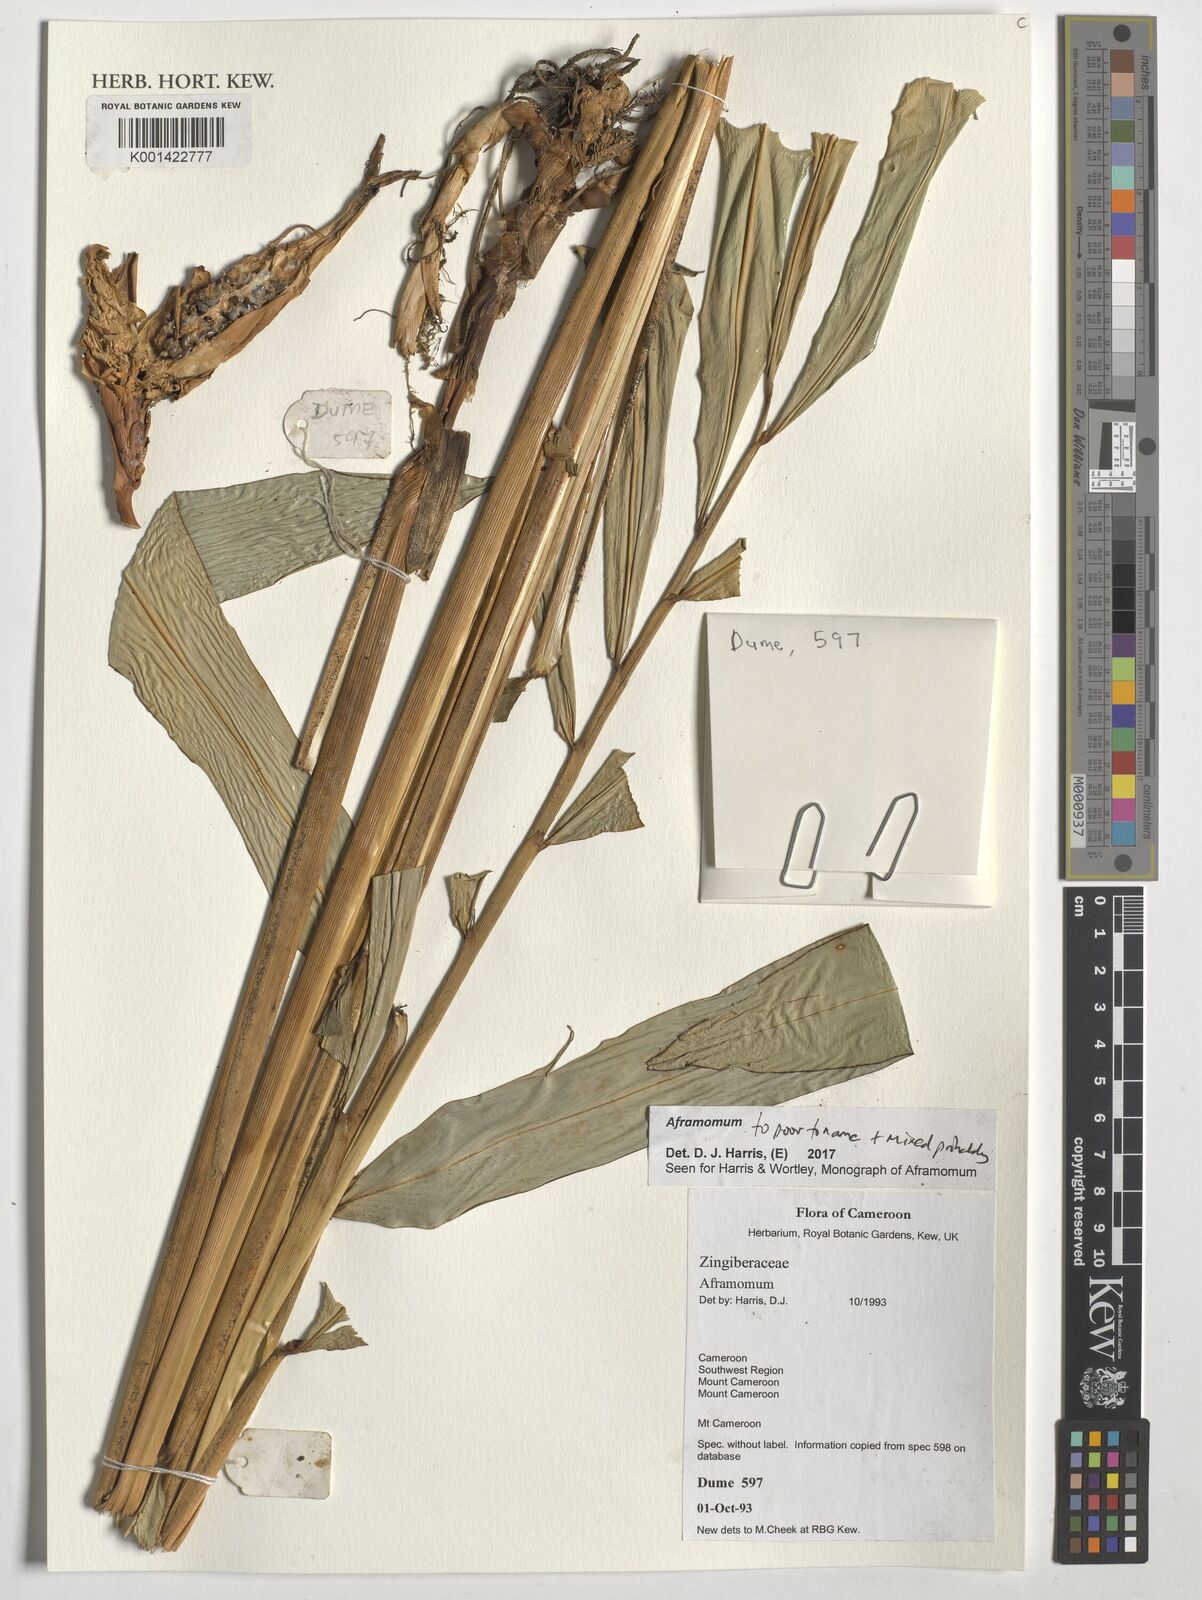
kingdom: Plantae
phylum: Tracheophyta
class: Liliopsida
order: Zingiberales
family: Zingiberaceae
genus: Aframomum
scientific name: Aframomum
